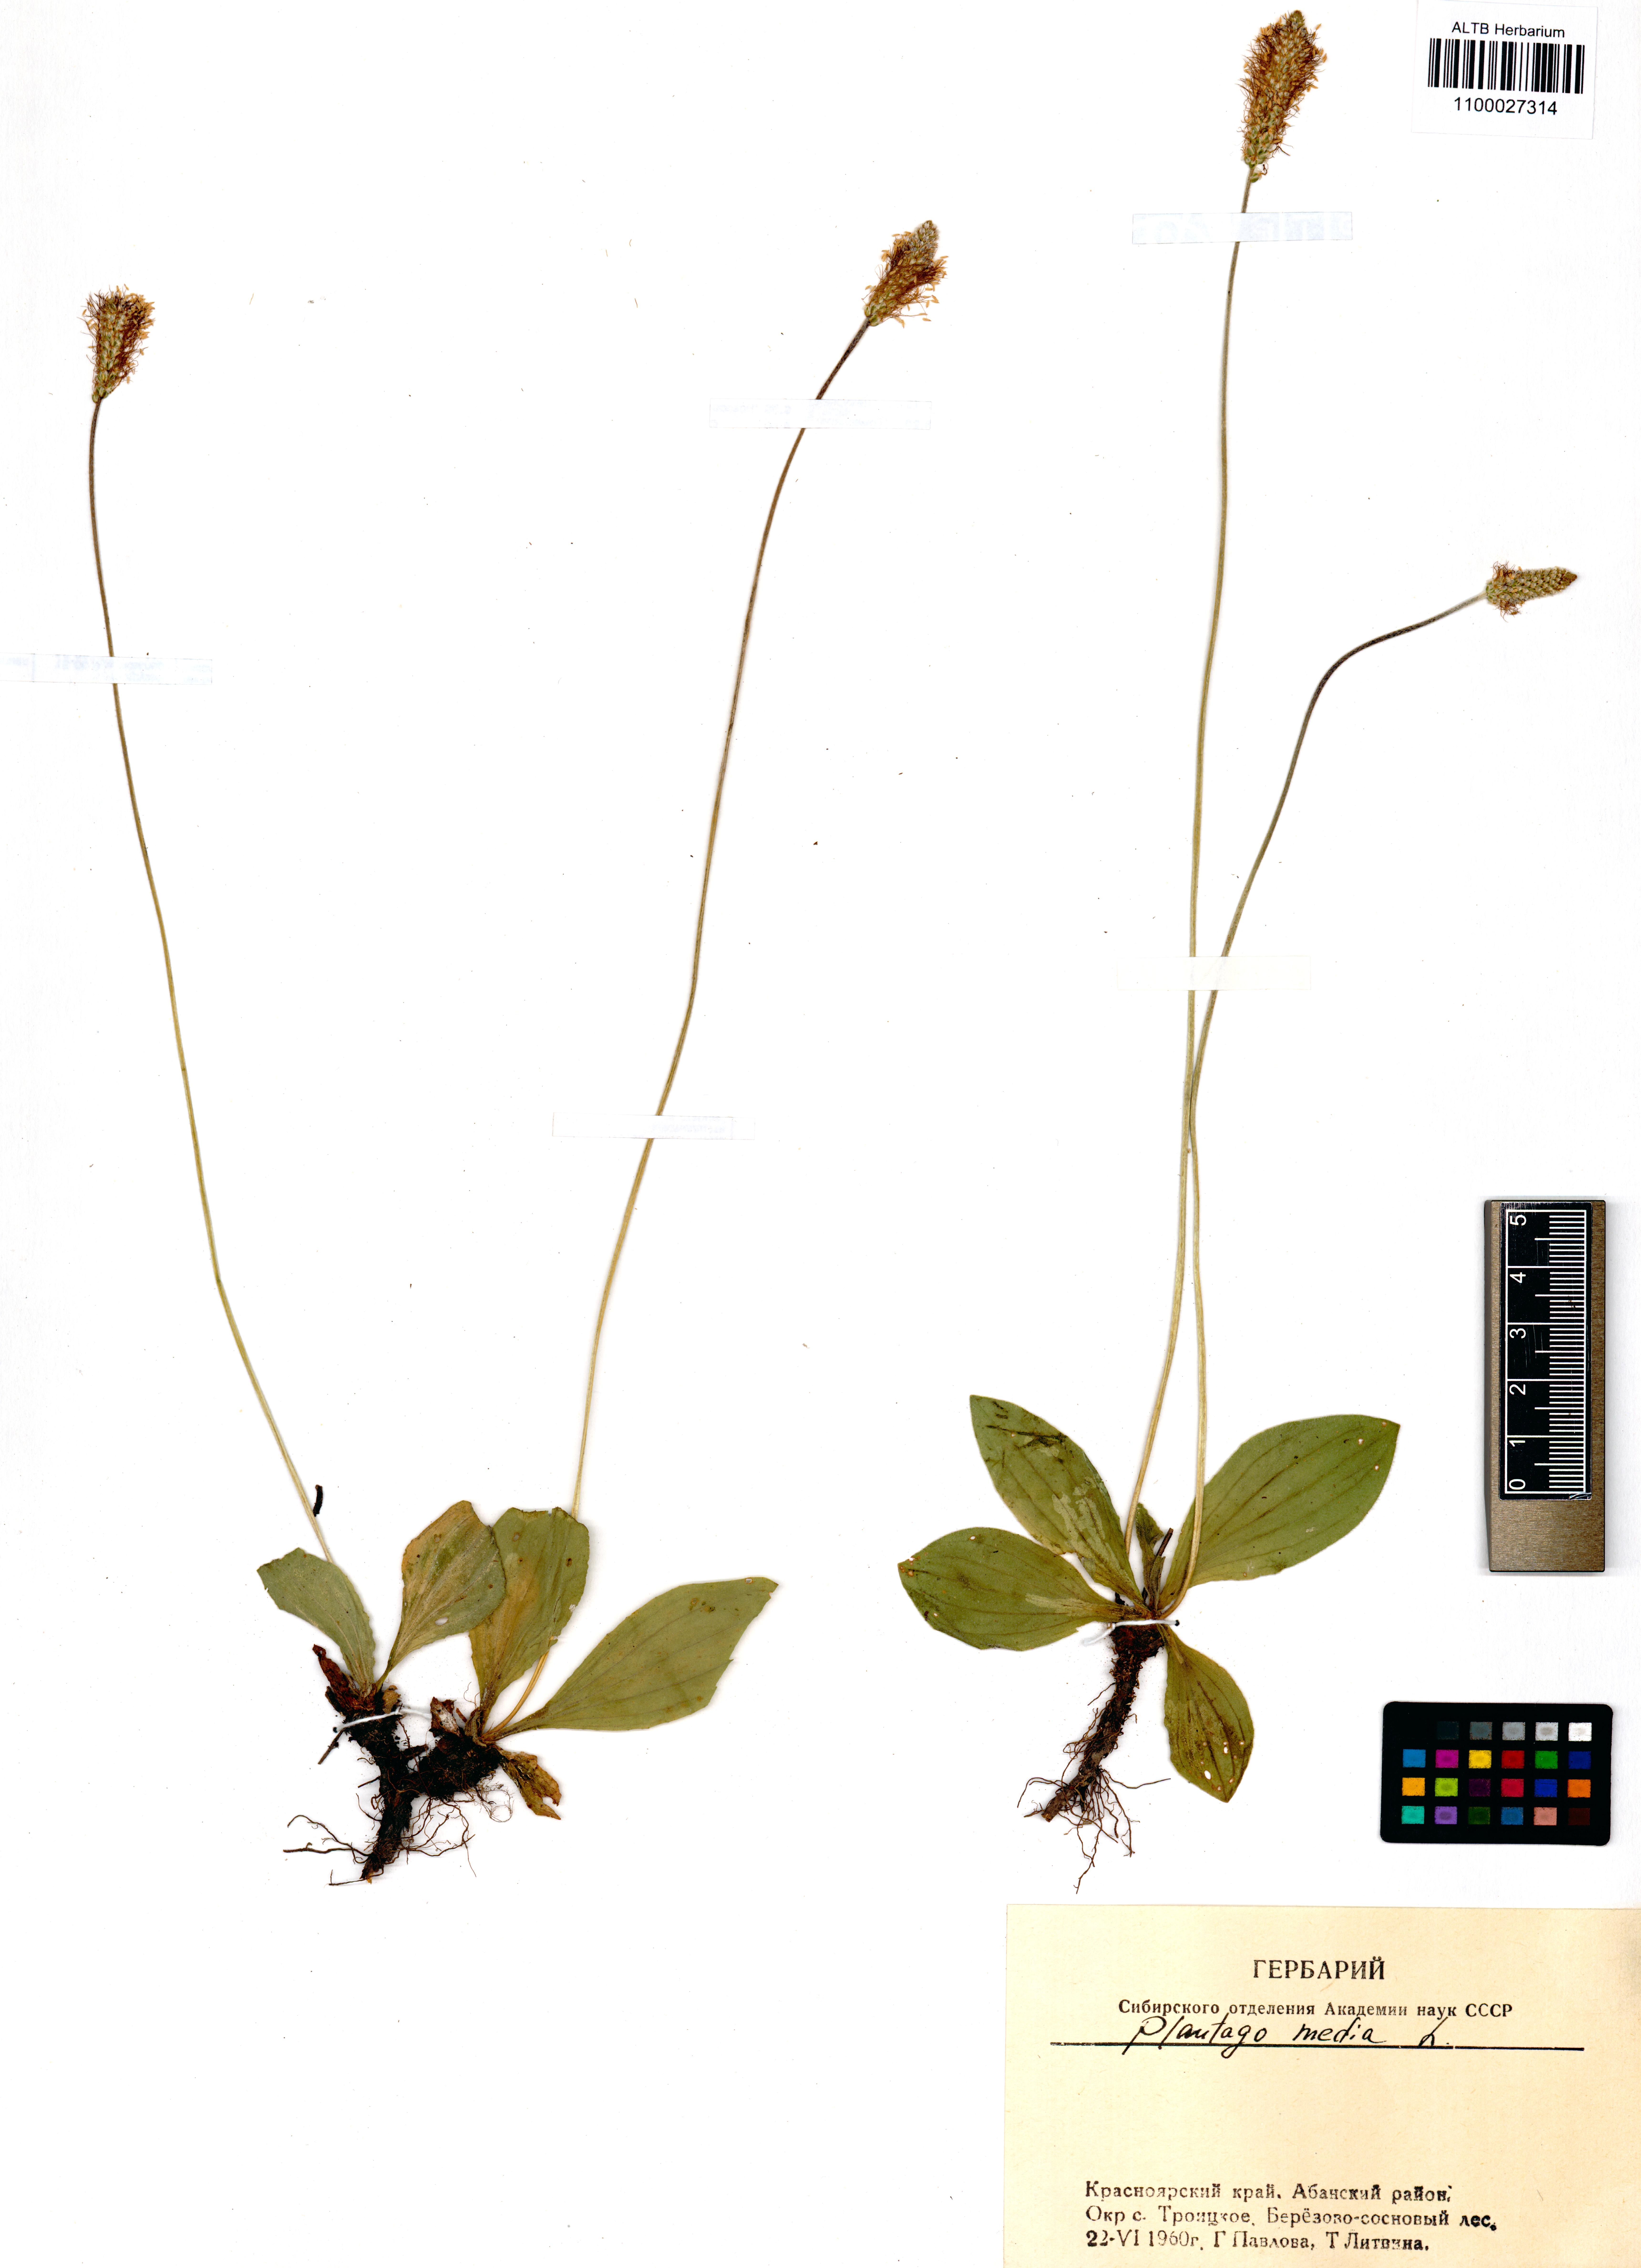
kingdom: Plantae
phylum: Tracheophyta
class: Magnoliopsida
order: Lamiales
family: Plantaginaceae
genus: Plantago
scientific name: Plantago media
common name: Hoary plantain
